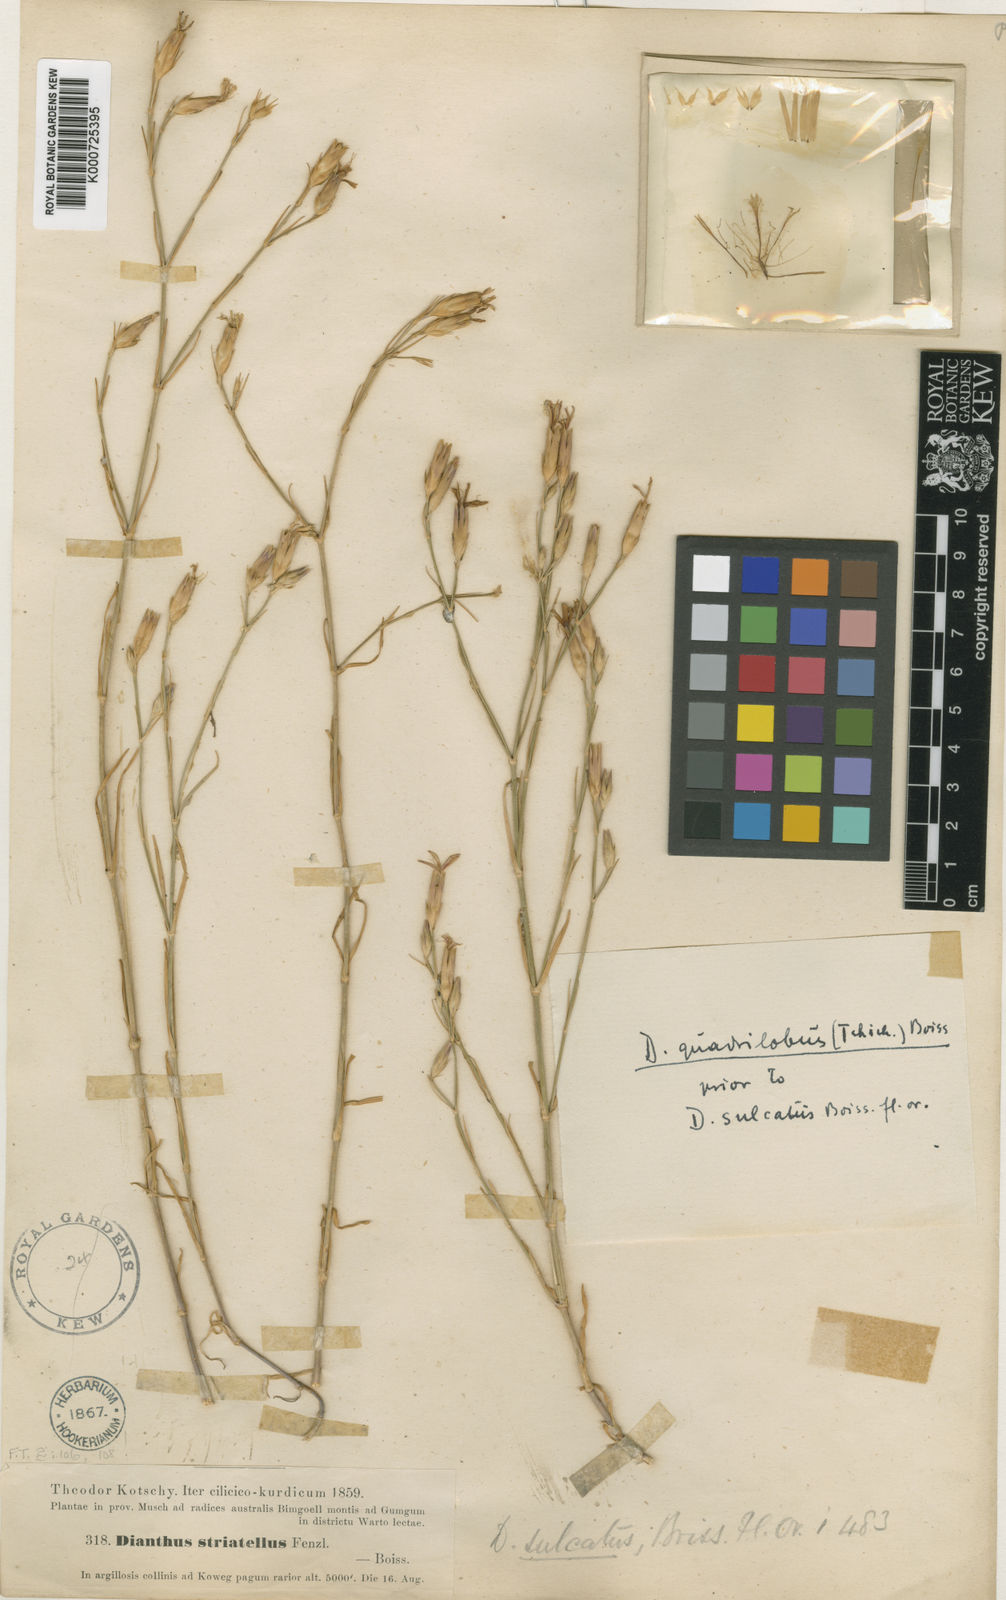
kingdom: Plantae
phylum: Tracheophyta
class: Magnoliopsida
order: Caryophyllales
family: Caryophyllaceae
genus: Dianthus
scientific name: Dianthus strictus
